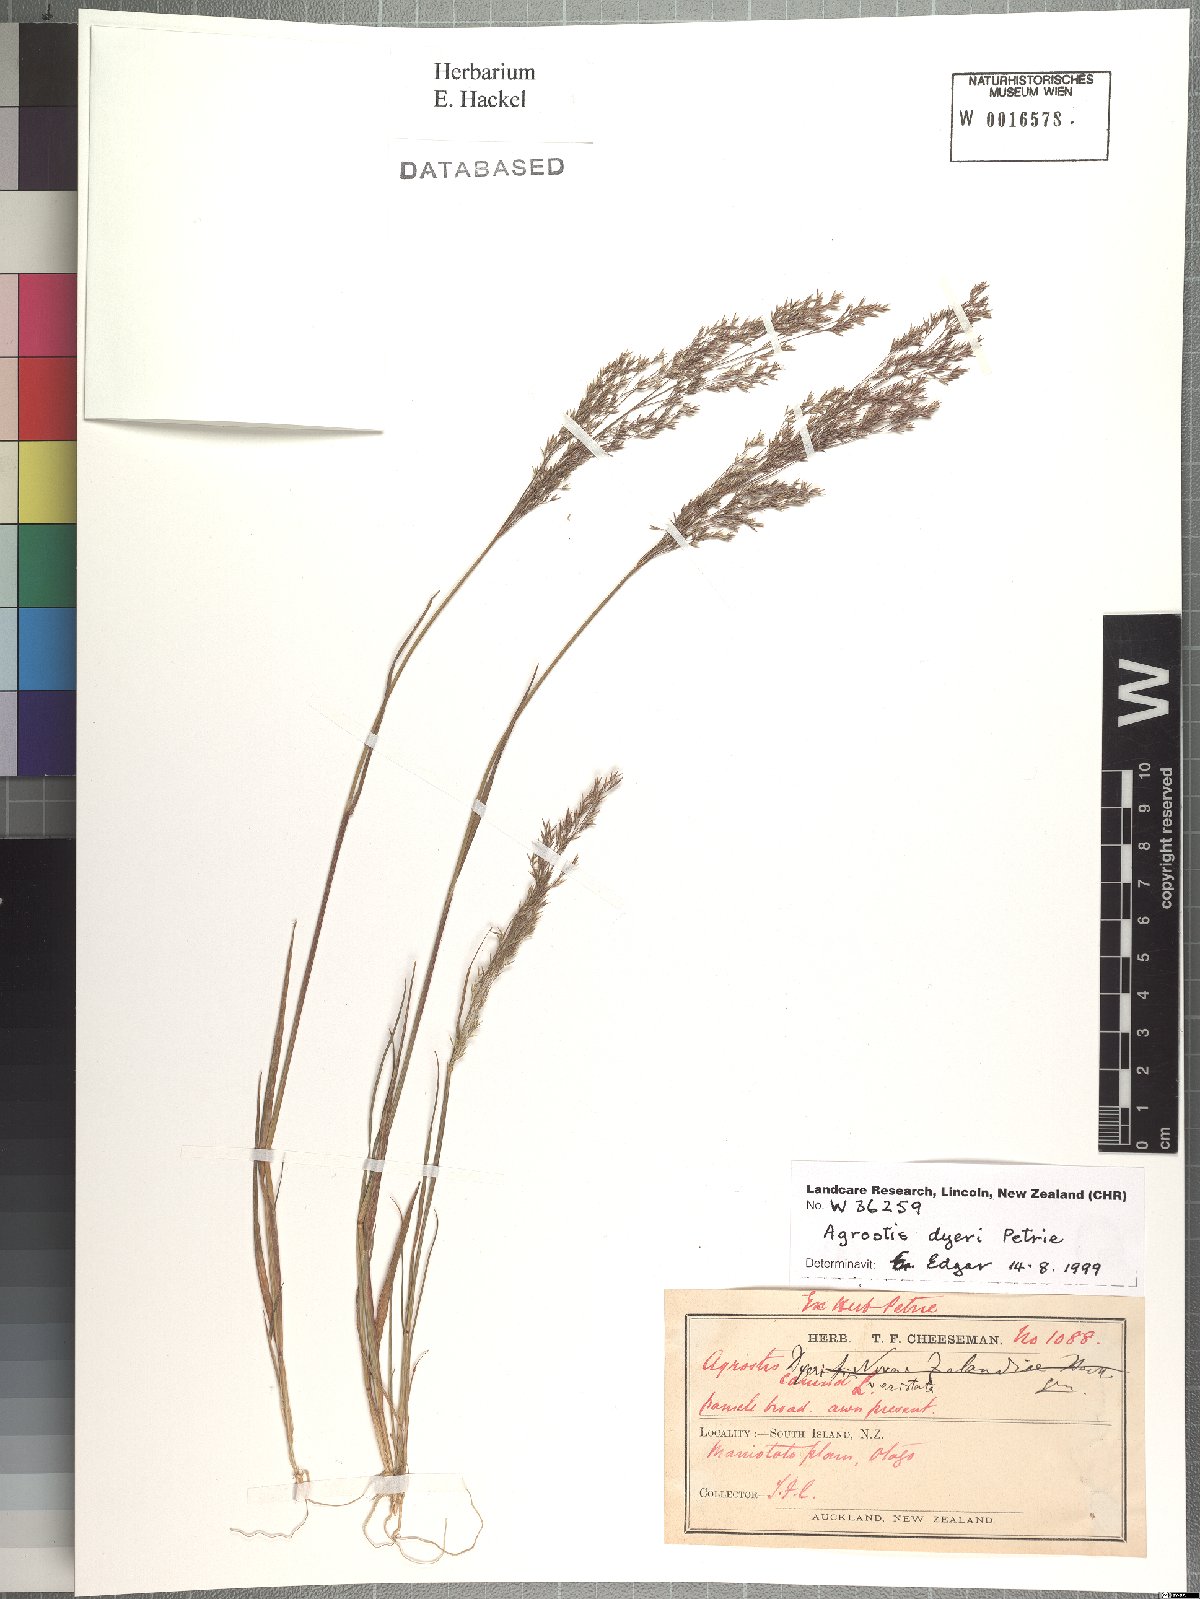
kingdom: Plantae
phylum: Tracheophyta
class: Liliopsida
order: Poales
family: Poaceae
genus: Agrostis
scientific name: Agrostis dyeri
